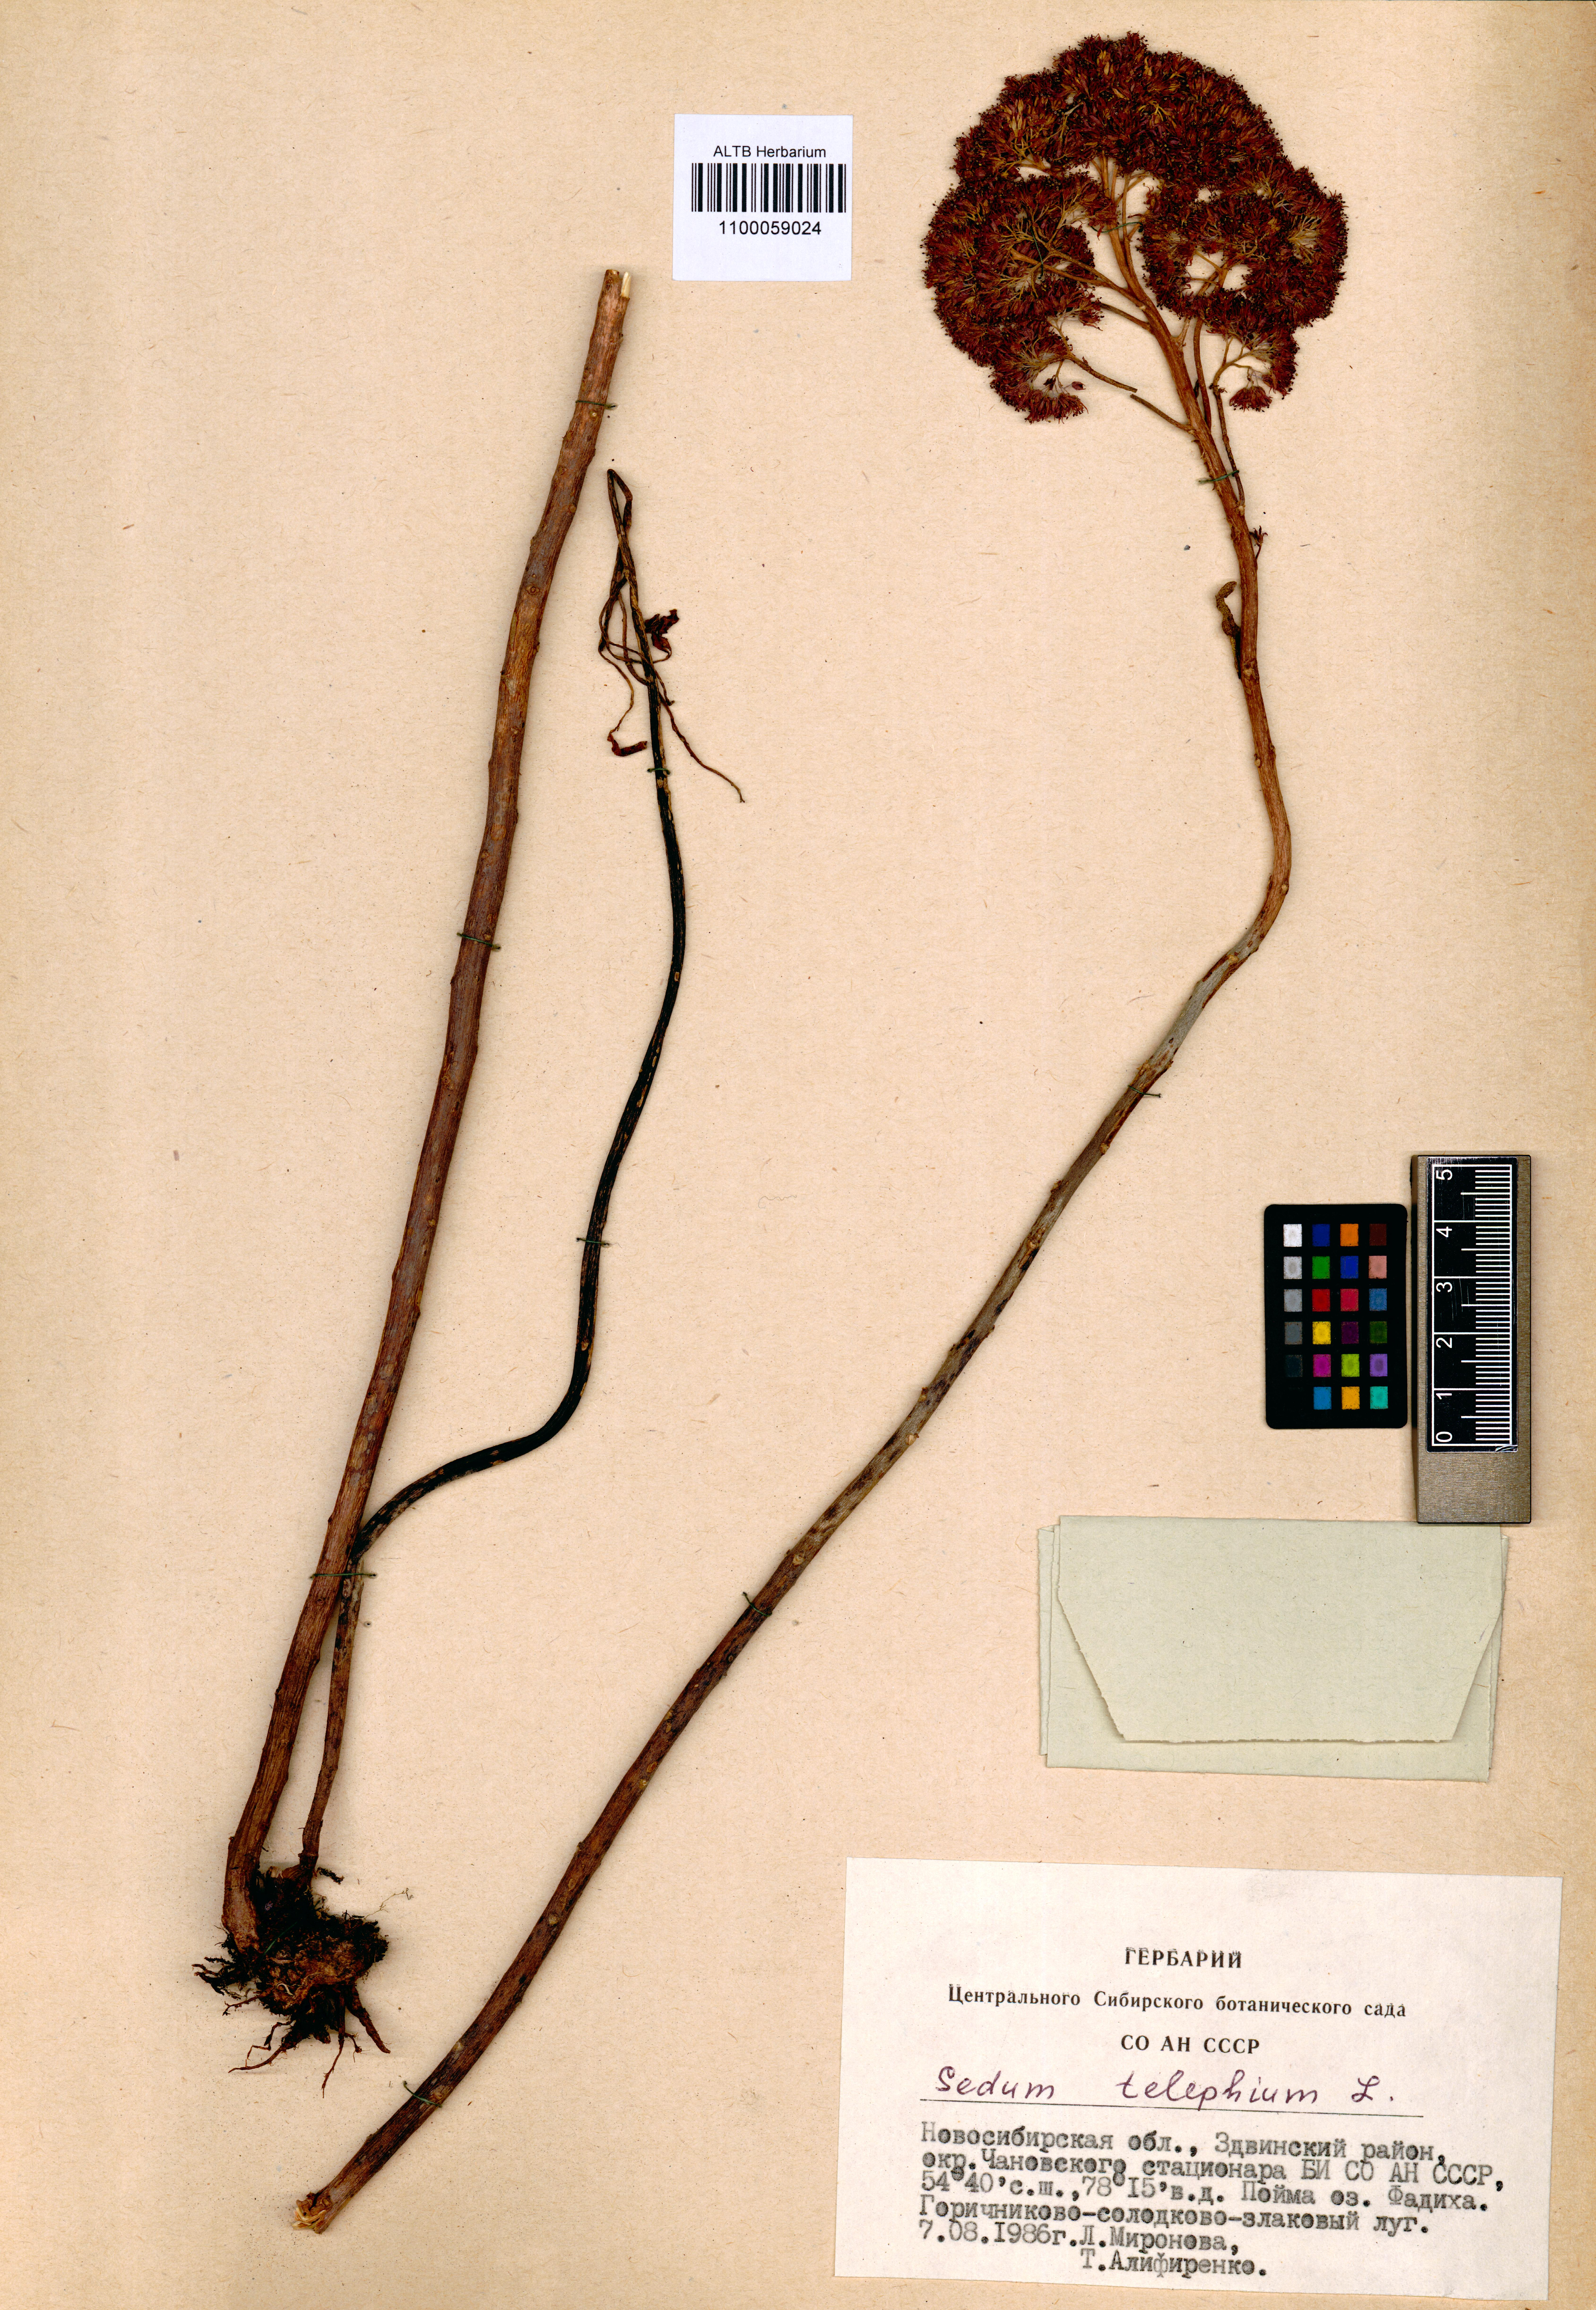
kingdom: Plantae
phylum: Tracheophyta
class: Magnoliopsida
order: Saxifragales
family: Crassulaceae
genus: Hylotelephium
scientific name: Hylotelephium telephium
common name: Live-forever
